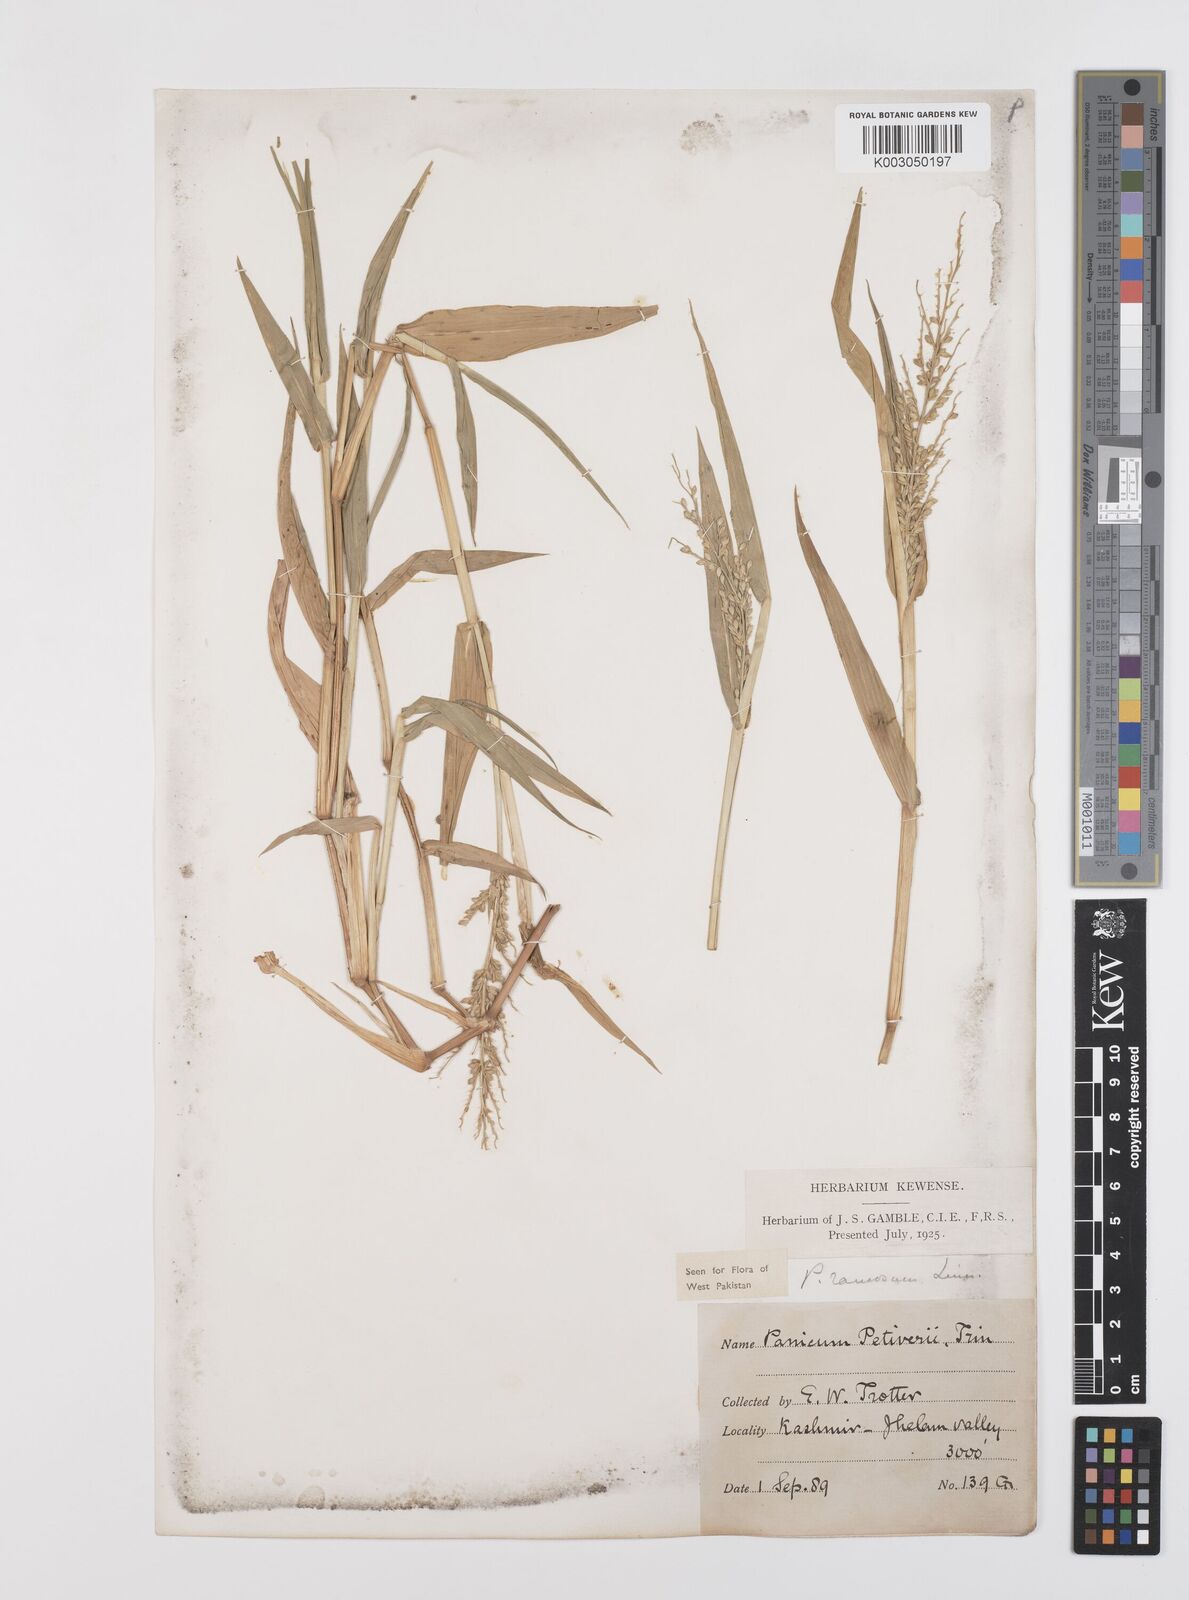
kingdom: Plantae
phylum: Tracheophyta
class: Liliopsida
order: Poales
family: Poaceae
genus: Urochloa
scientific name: Urochloa ramosa
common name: Browntop millet
